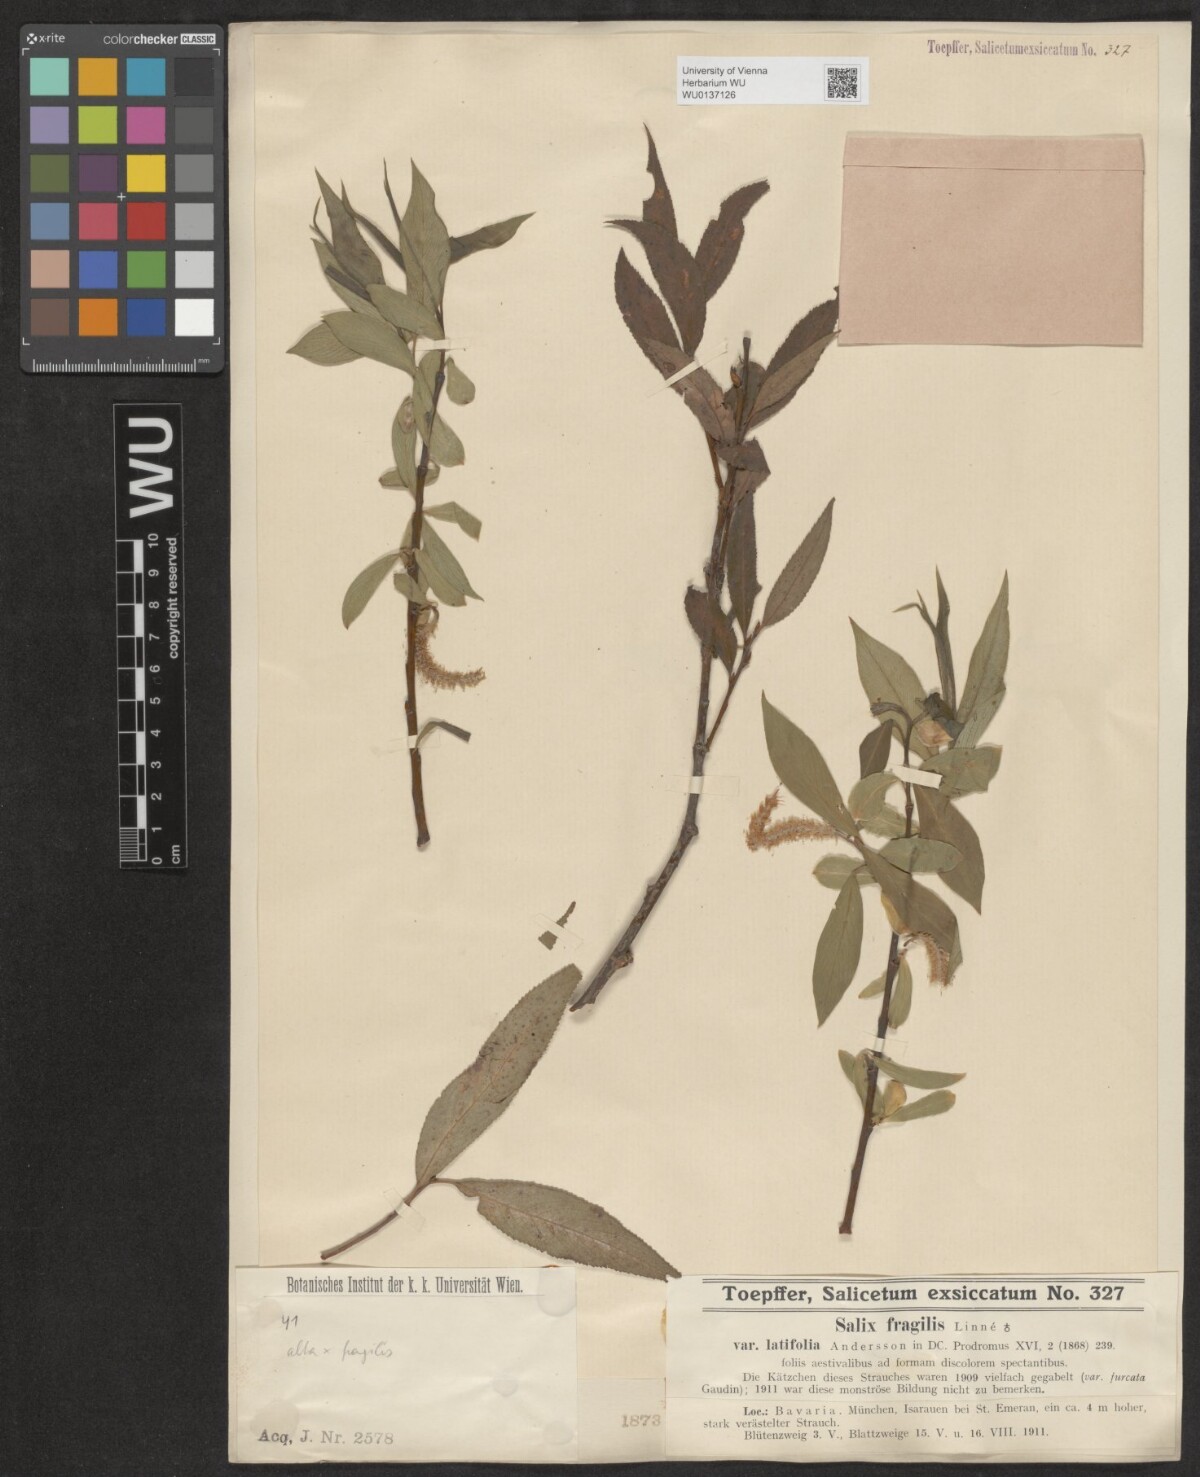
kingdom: Plantae
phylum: Tracheophyta
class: Magnoliopsida
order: Malpighiales
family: Salicaceae
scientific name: Salicaceae
